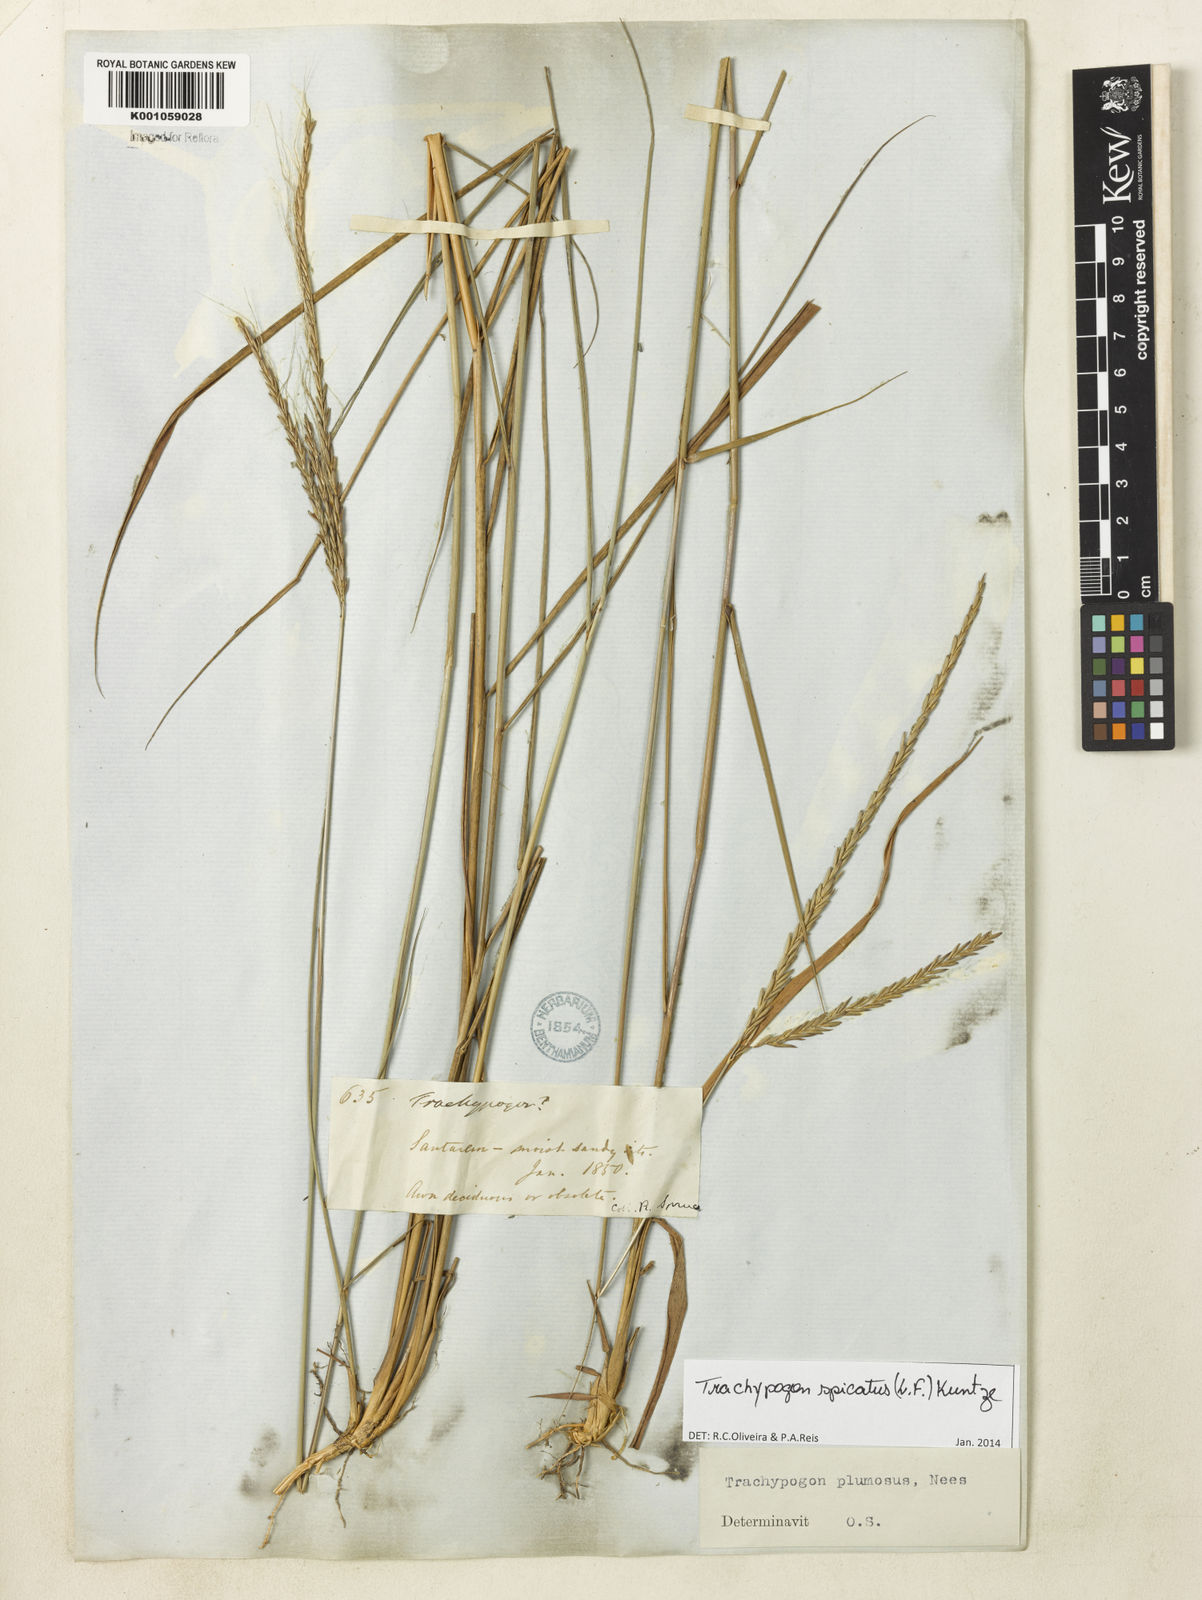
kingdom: Plantae
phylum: Tracheophyta
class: Liliopsida
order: Poales
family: Poaceae
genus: Trachypogon
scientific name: Trachypogon spicatus
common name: Crinkle-awn
